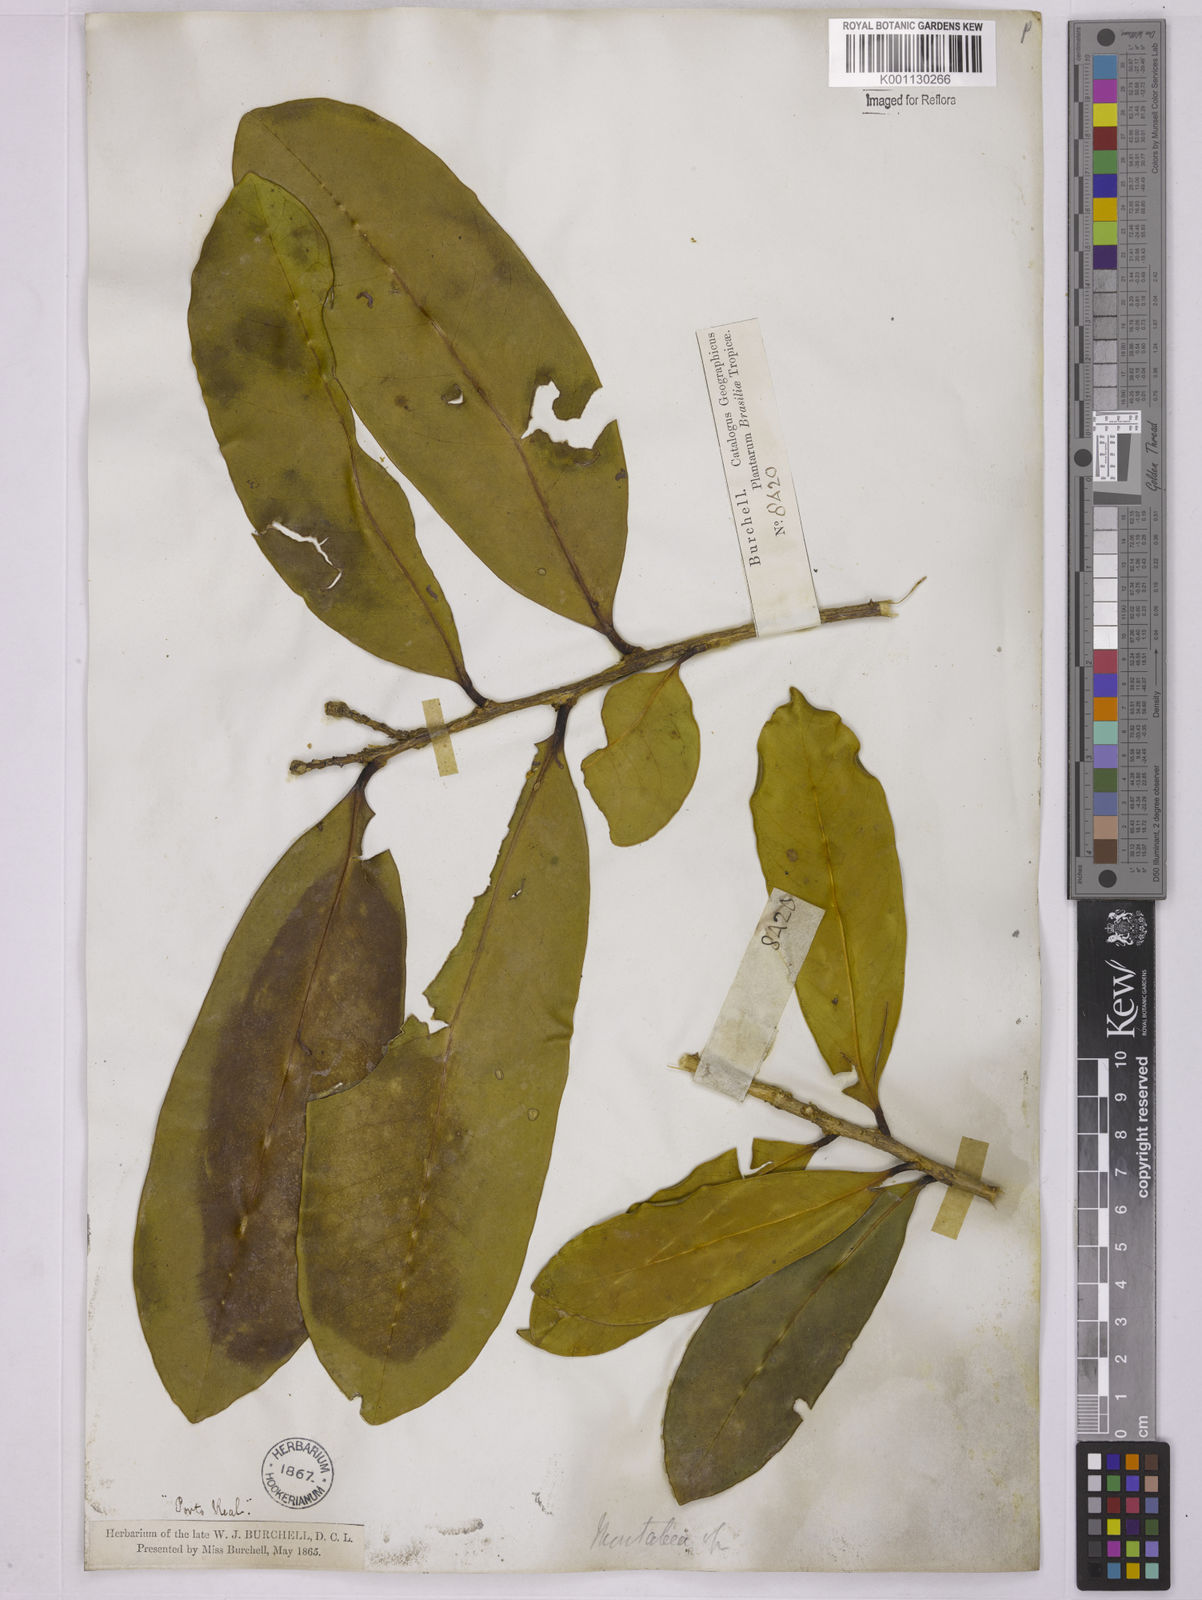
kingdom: Plantae
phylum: Tracheophyta
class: Magnoliopsida
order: Fabales
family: Polygalaceae
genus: Moutabea
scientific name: Moutabea aculeata
